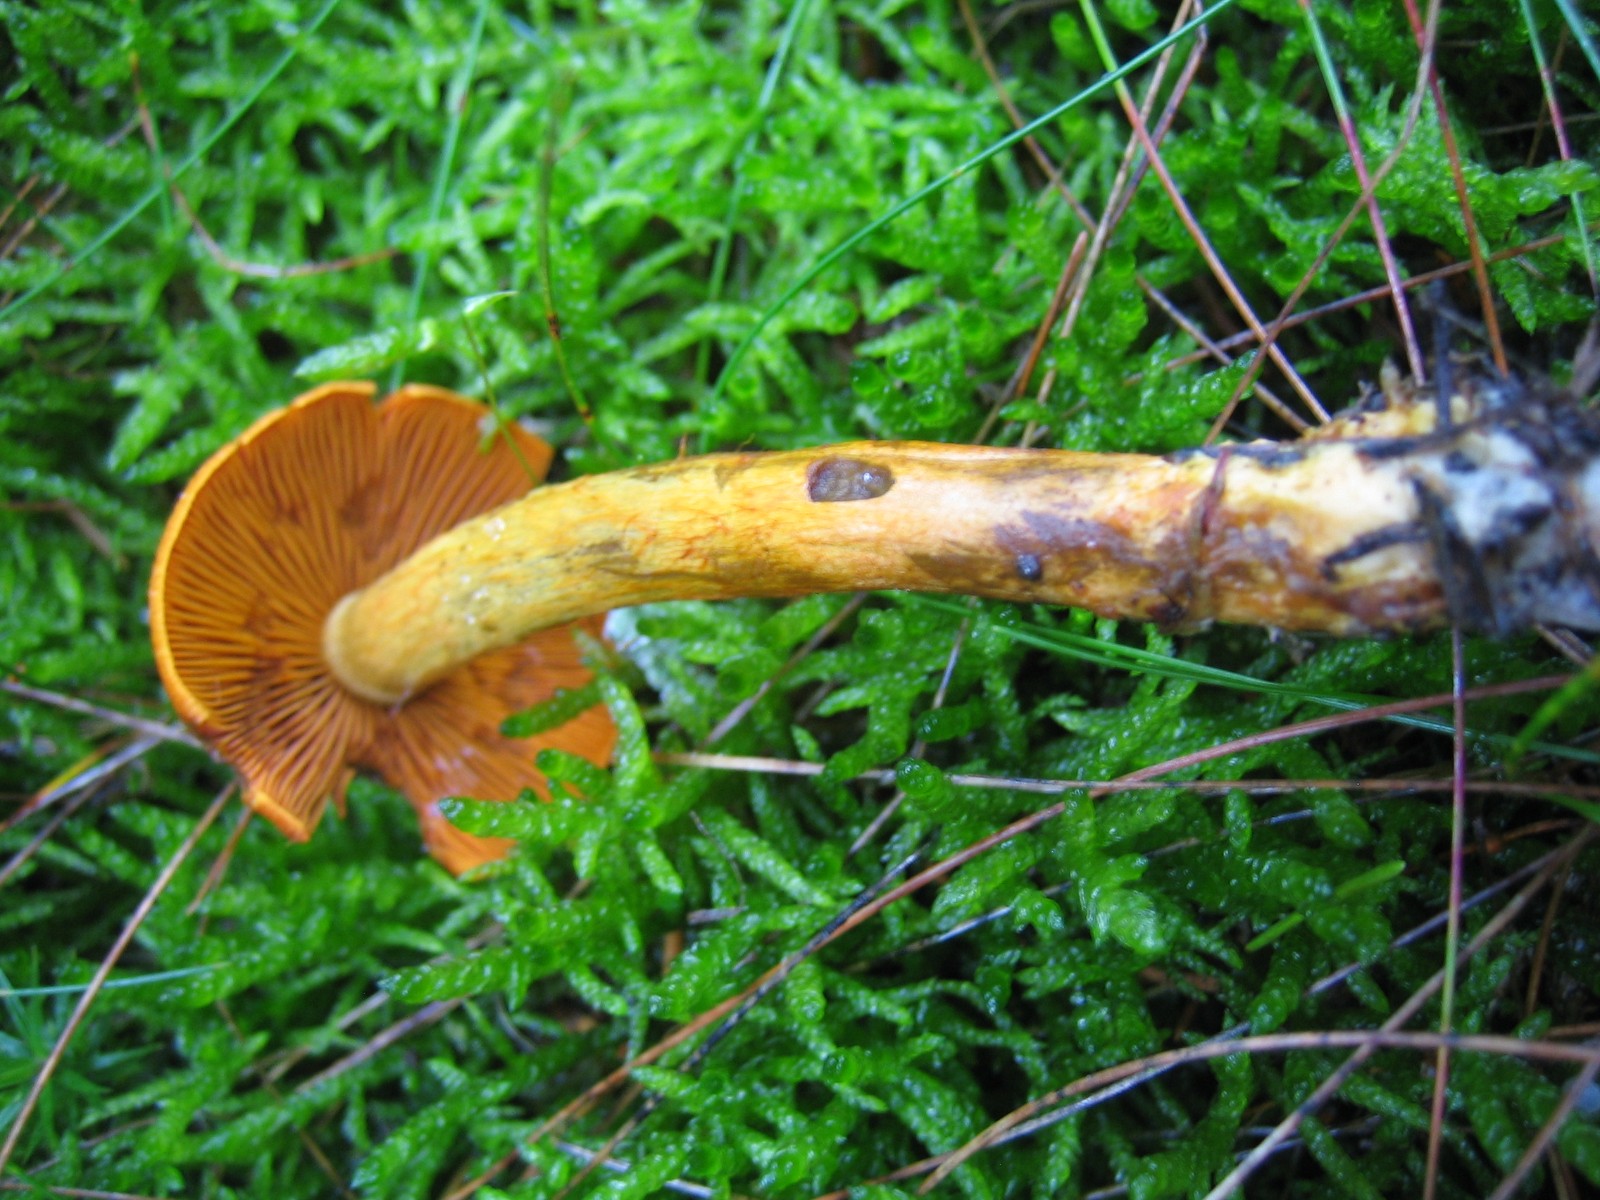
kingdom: Fungi
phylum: Basidiomycota
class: Agaricomycetes
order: Agaricales
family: Cortinariaceae
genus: Cortinarius
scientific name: Cortinarius malicorius
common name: grønkødet slørhat
